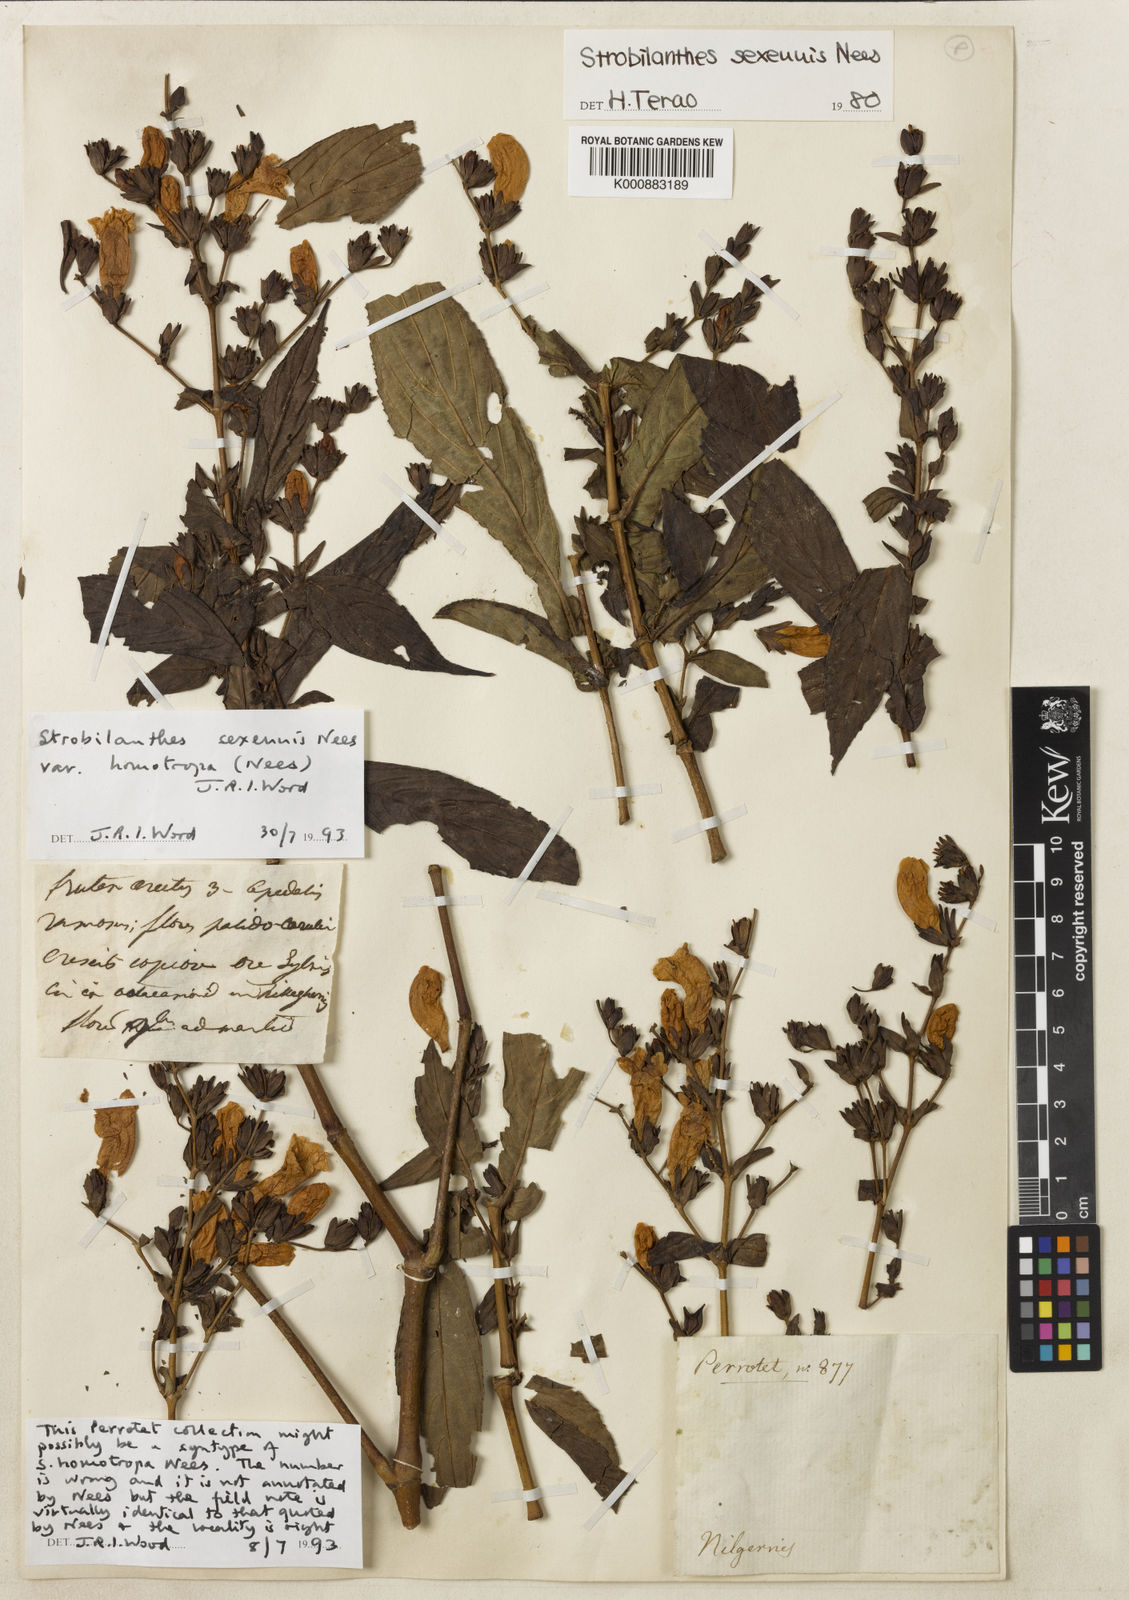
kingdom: Plantae
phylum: Tracheophyta
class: Magnoliopsida
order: Lamiales
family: Acanthaceae
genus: Strobilanthes
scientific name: Strobilanthes homotropa
